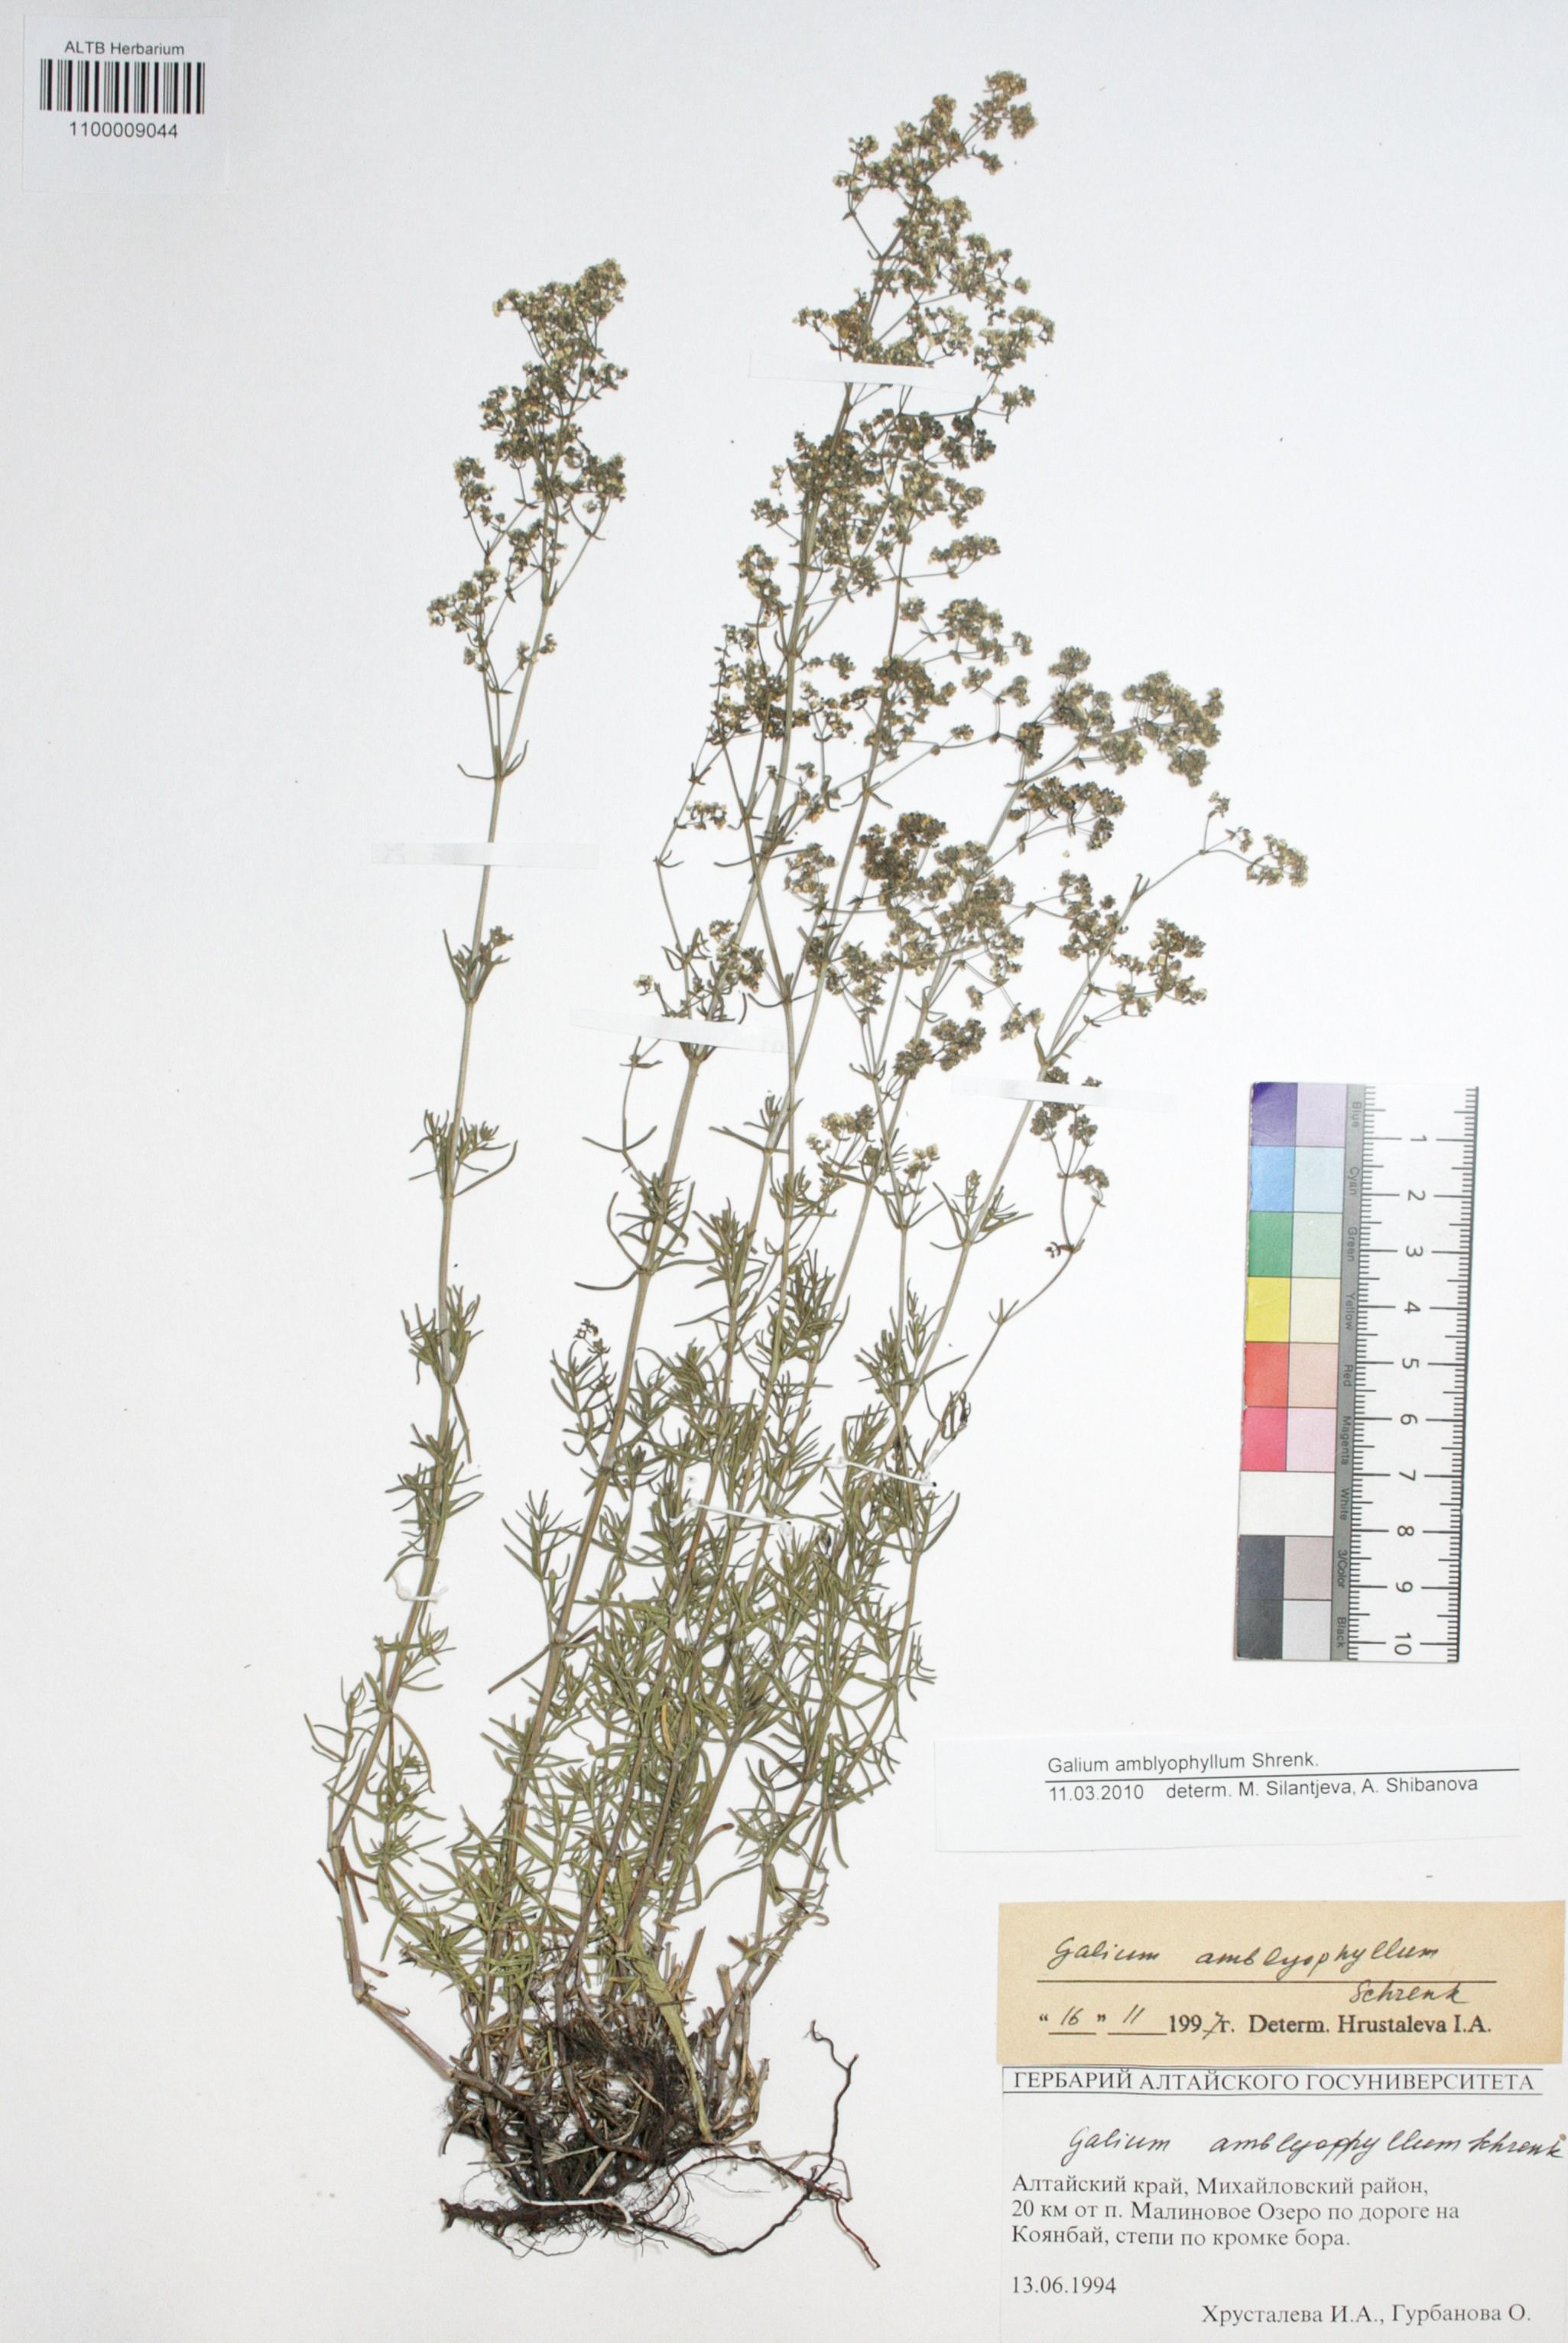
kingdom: Plantae
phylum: Tracheophyta
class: Magnoliopsida
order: Gentianales
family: Rubiaceae
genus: Galium
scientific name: Galium amblyophyllum
